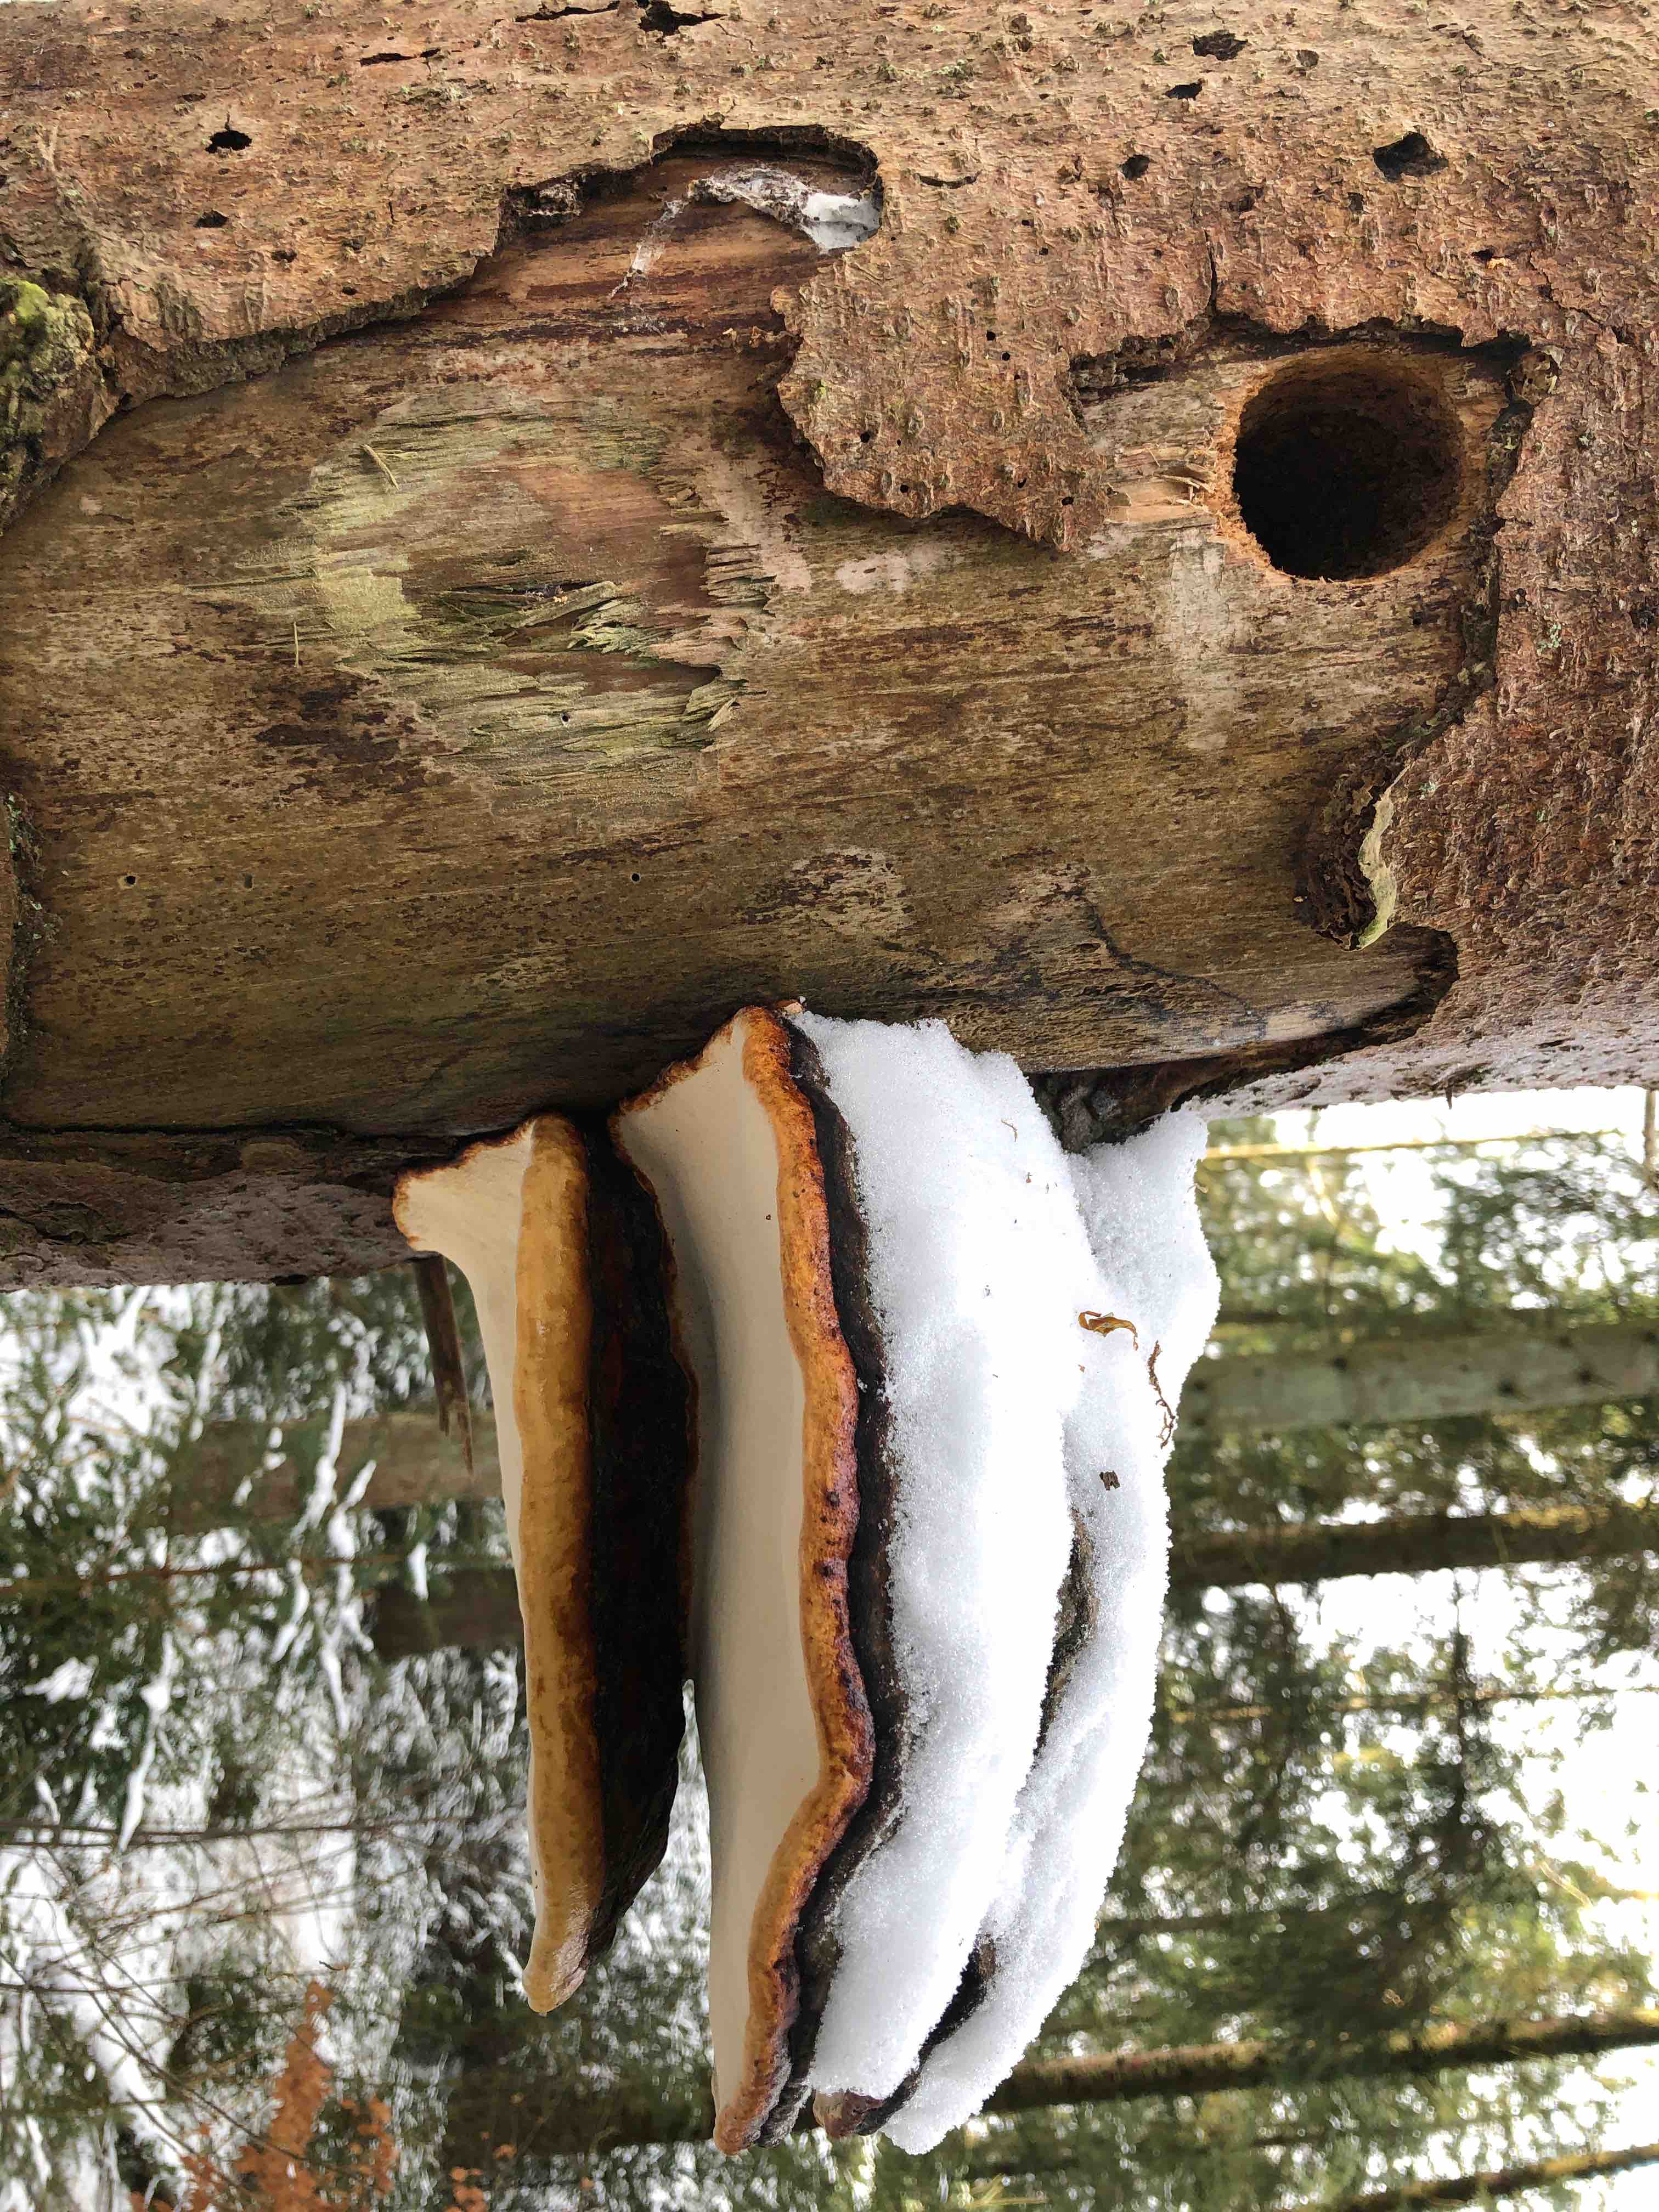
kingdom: Fungi
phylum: Basidiomycota
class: Agaricomycetes
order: Polyporales
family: Fomitopsidaceae
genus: Fomitopsis
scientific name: Fomitopsis pinicola
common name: randbæltet hovporesvamp
